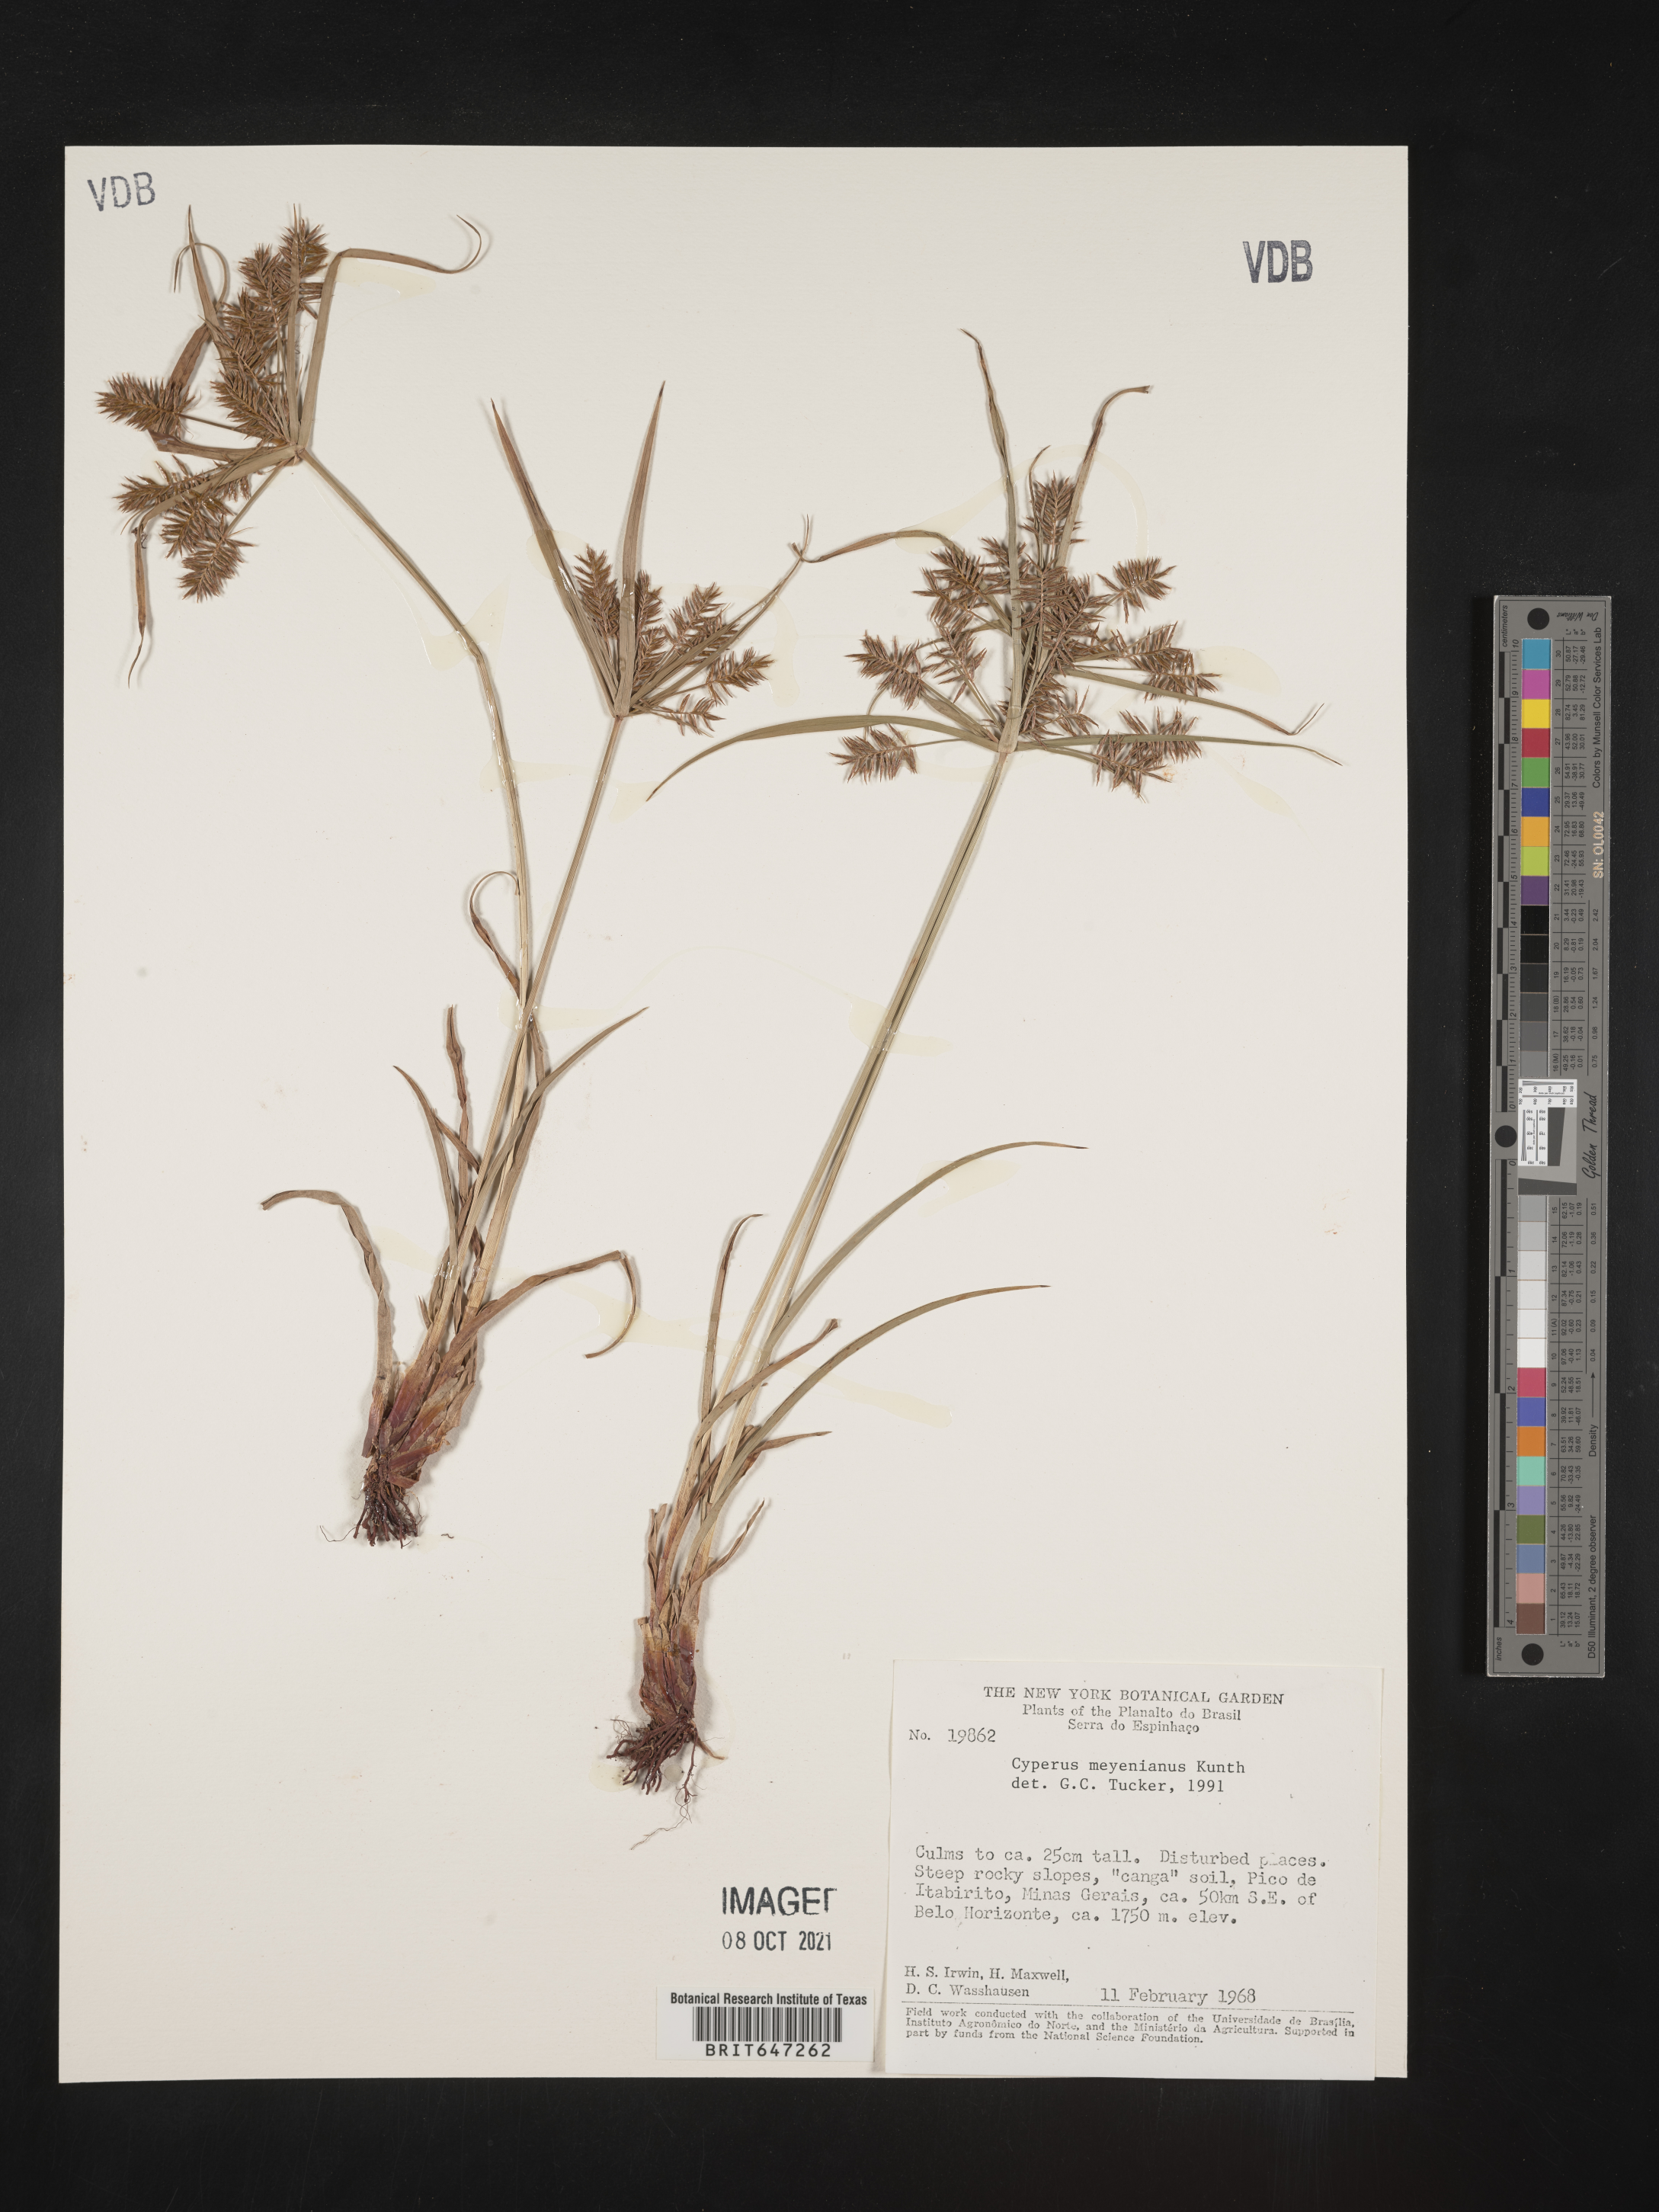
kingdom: Plantae
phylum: Tracheophyta
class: Liliopsida
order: Poales
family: Cyperaceae
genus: Cyperus
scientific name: Cyperus meyenianus
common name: Meyen's flatsedge
